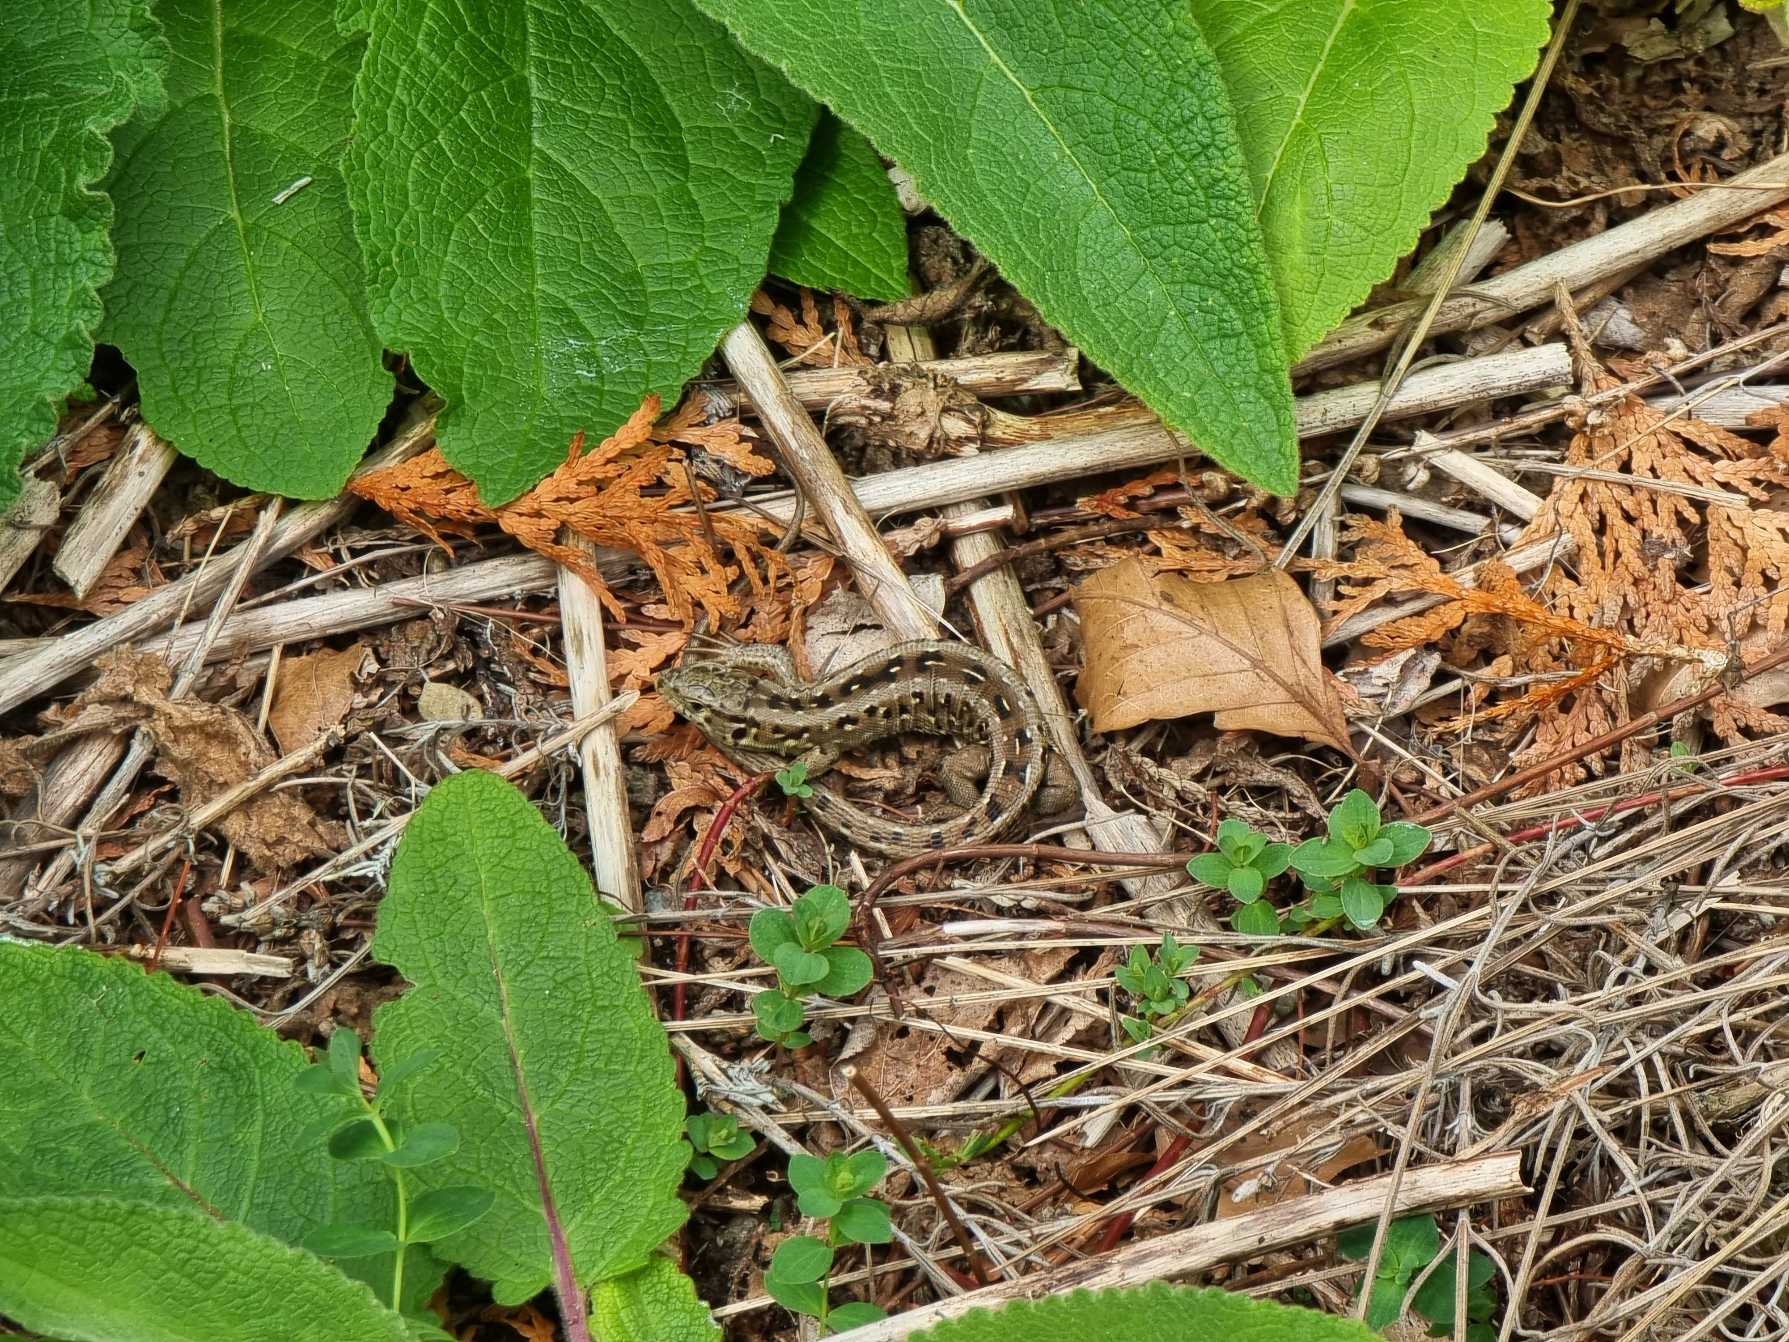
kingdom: Animalia
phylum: Chordata
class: Squamata
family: Lacertidae
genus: Lacerta
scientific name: Lacerta agilis
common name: Markfirben
